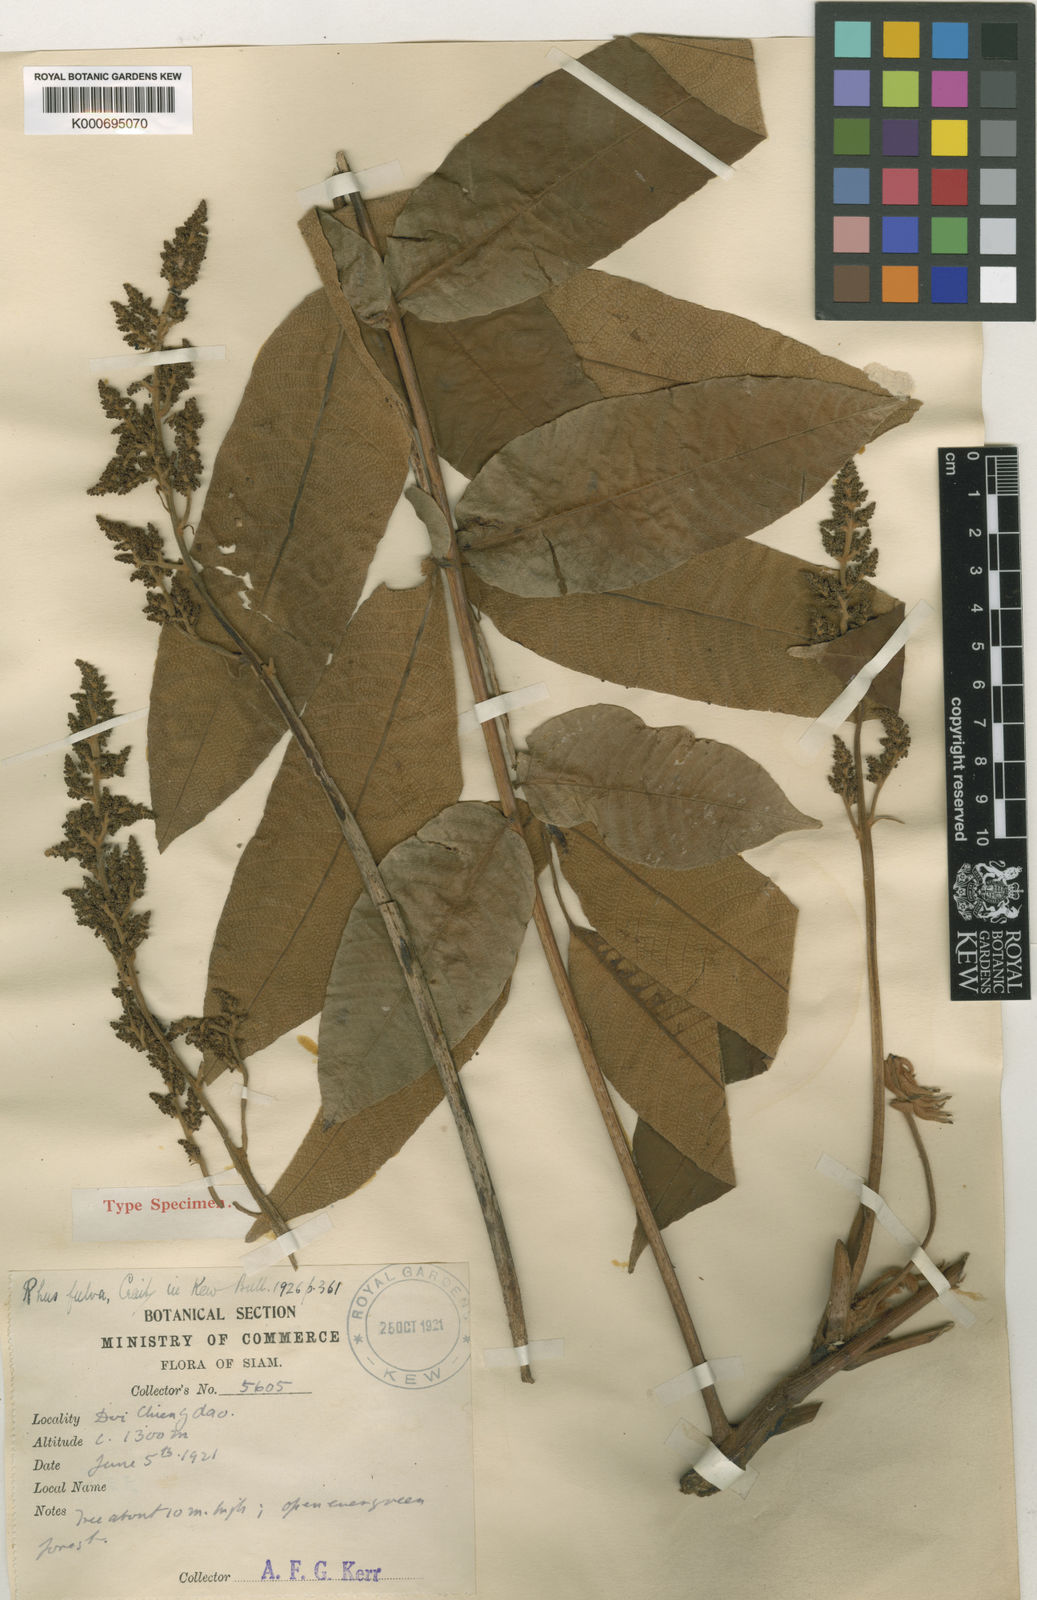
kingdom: Plantae
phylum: Tracheophyta
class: Magnoliopsida
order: Sapindales
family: Anacardiaceae
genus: Toxicodendron
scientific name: Toxicodendron fulvum
